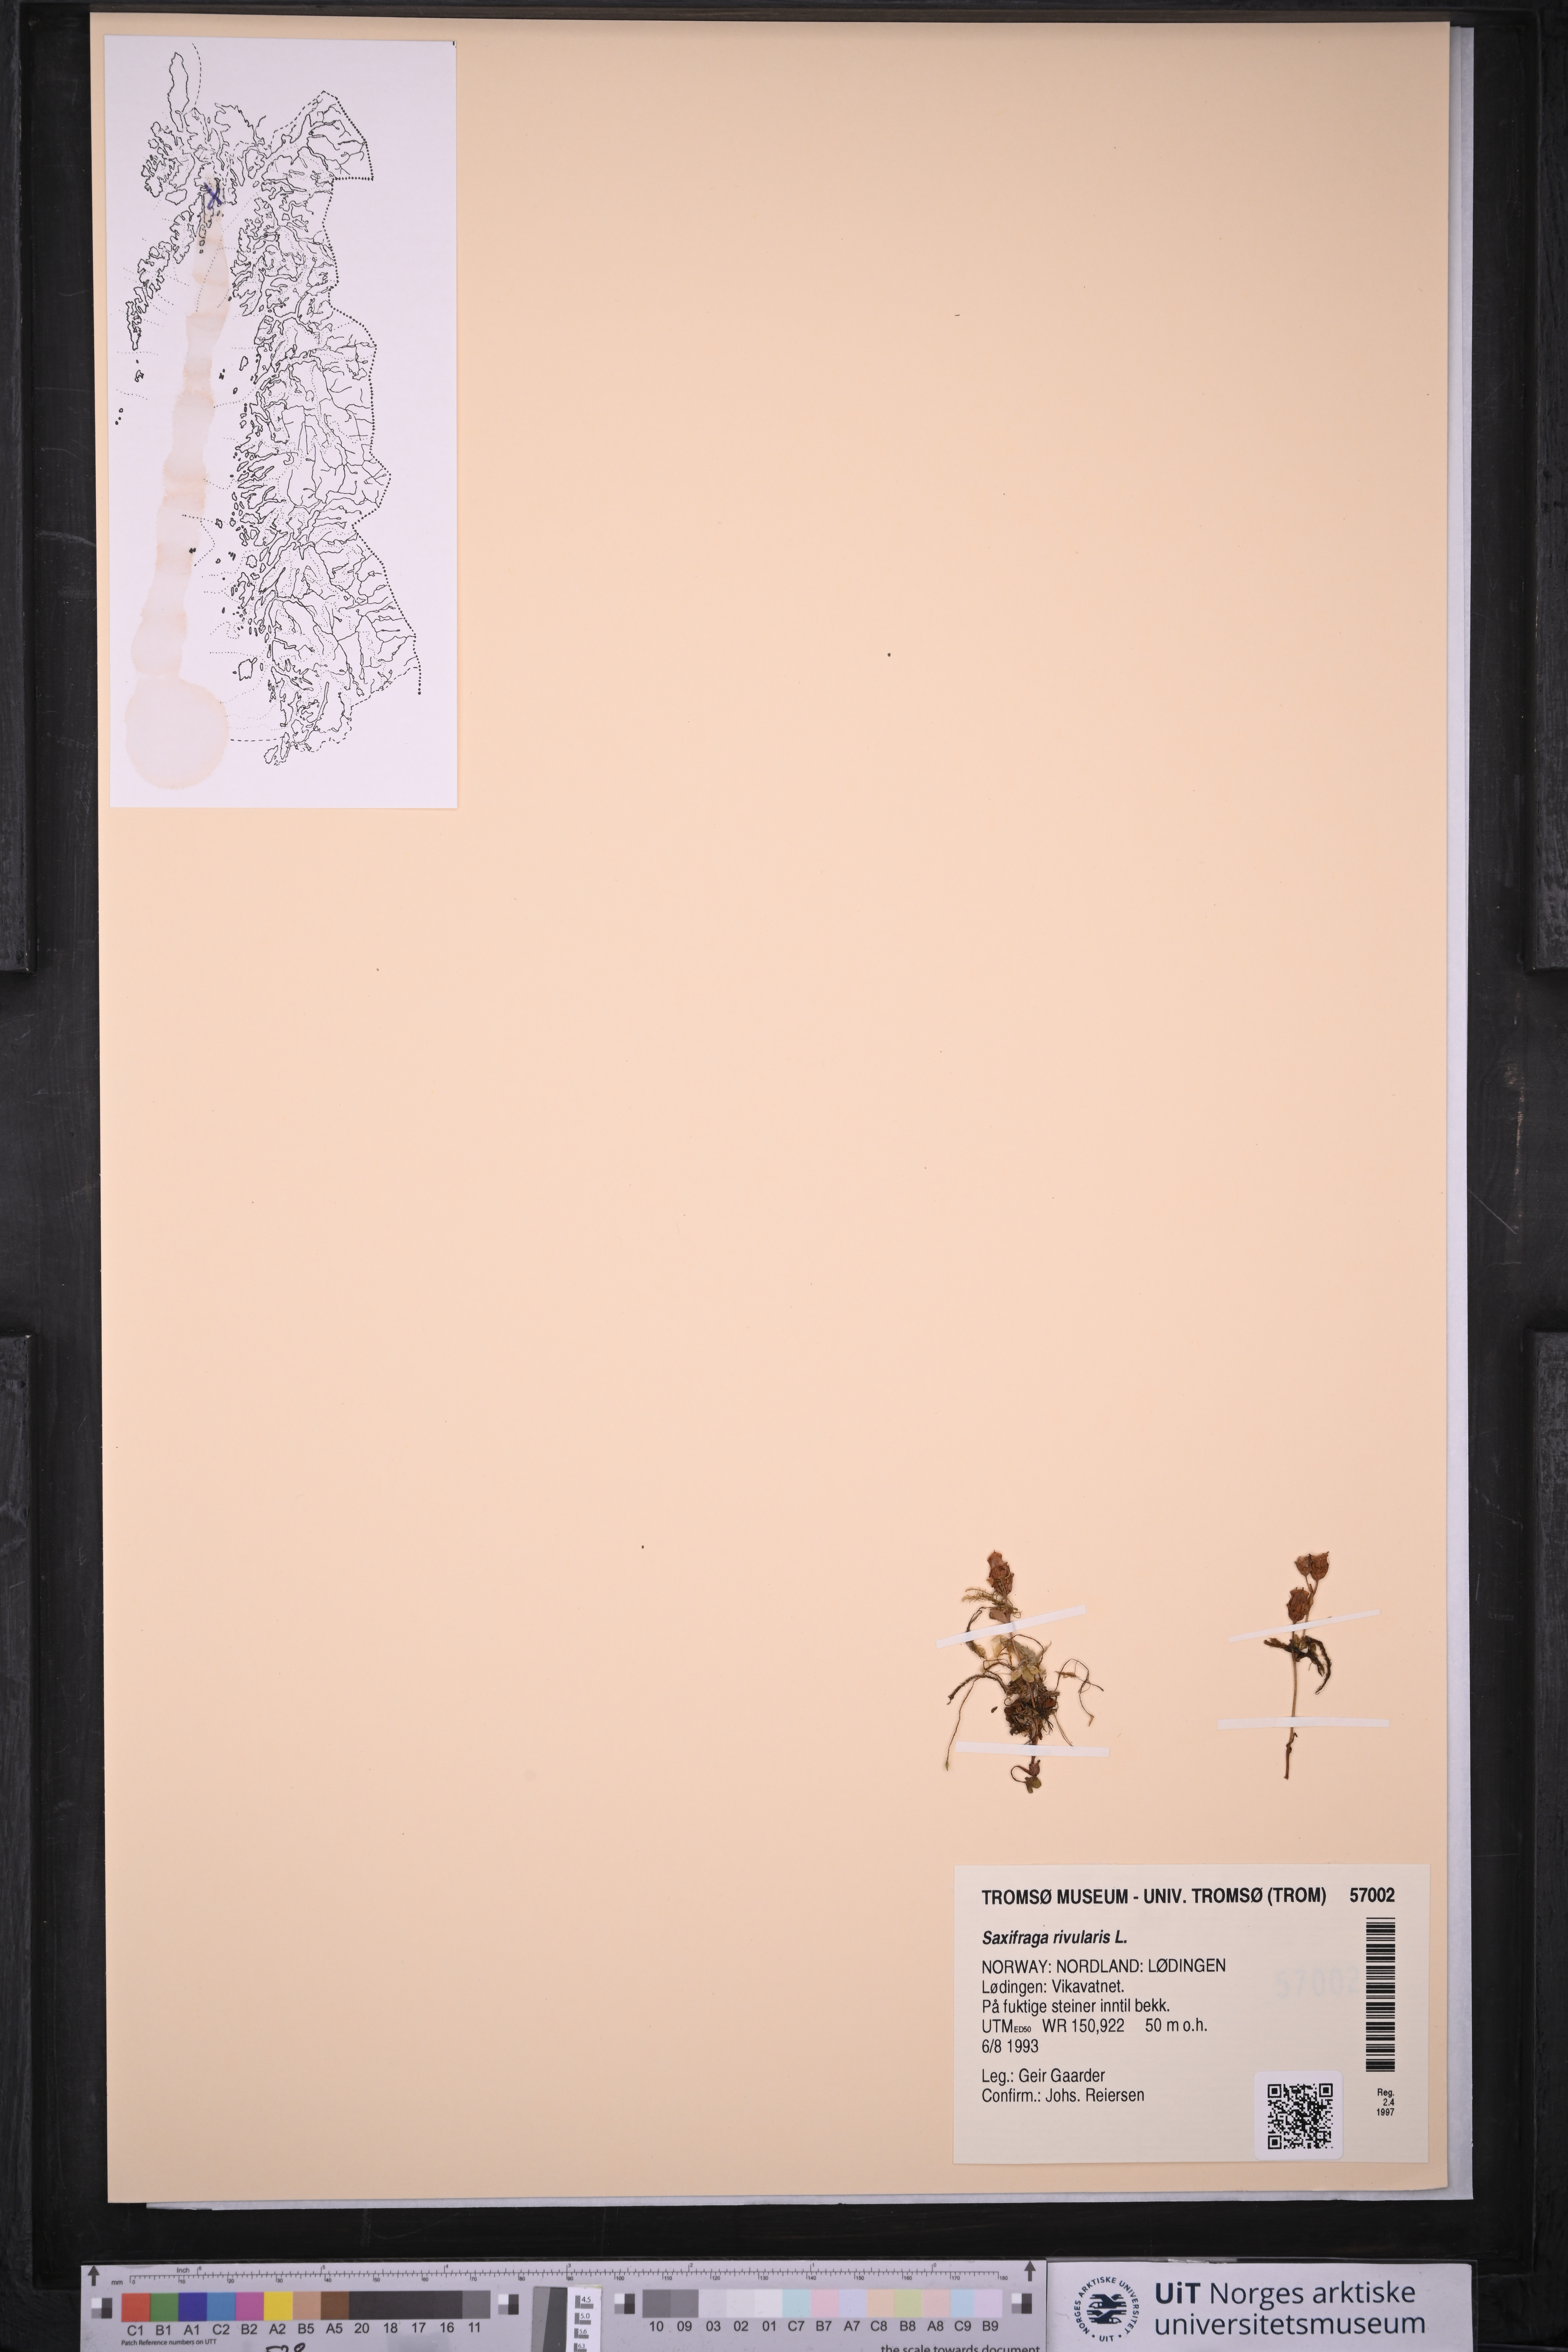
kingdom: Plantae
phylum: Tracheophyta
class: Magnoliopsida
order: Saxifragales
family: Saxifragaceae
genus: Saxifraga
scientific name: Saxifraga rivularis
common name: Highland saxifrage
